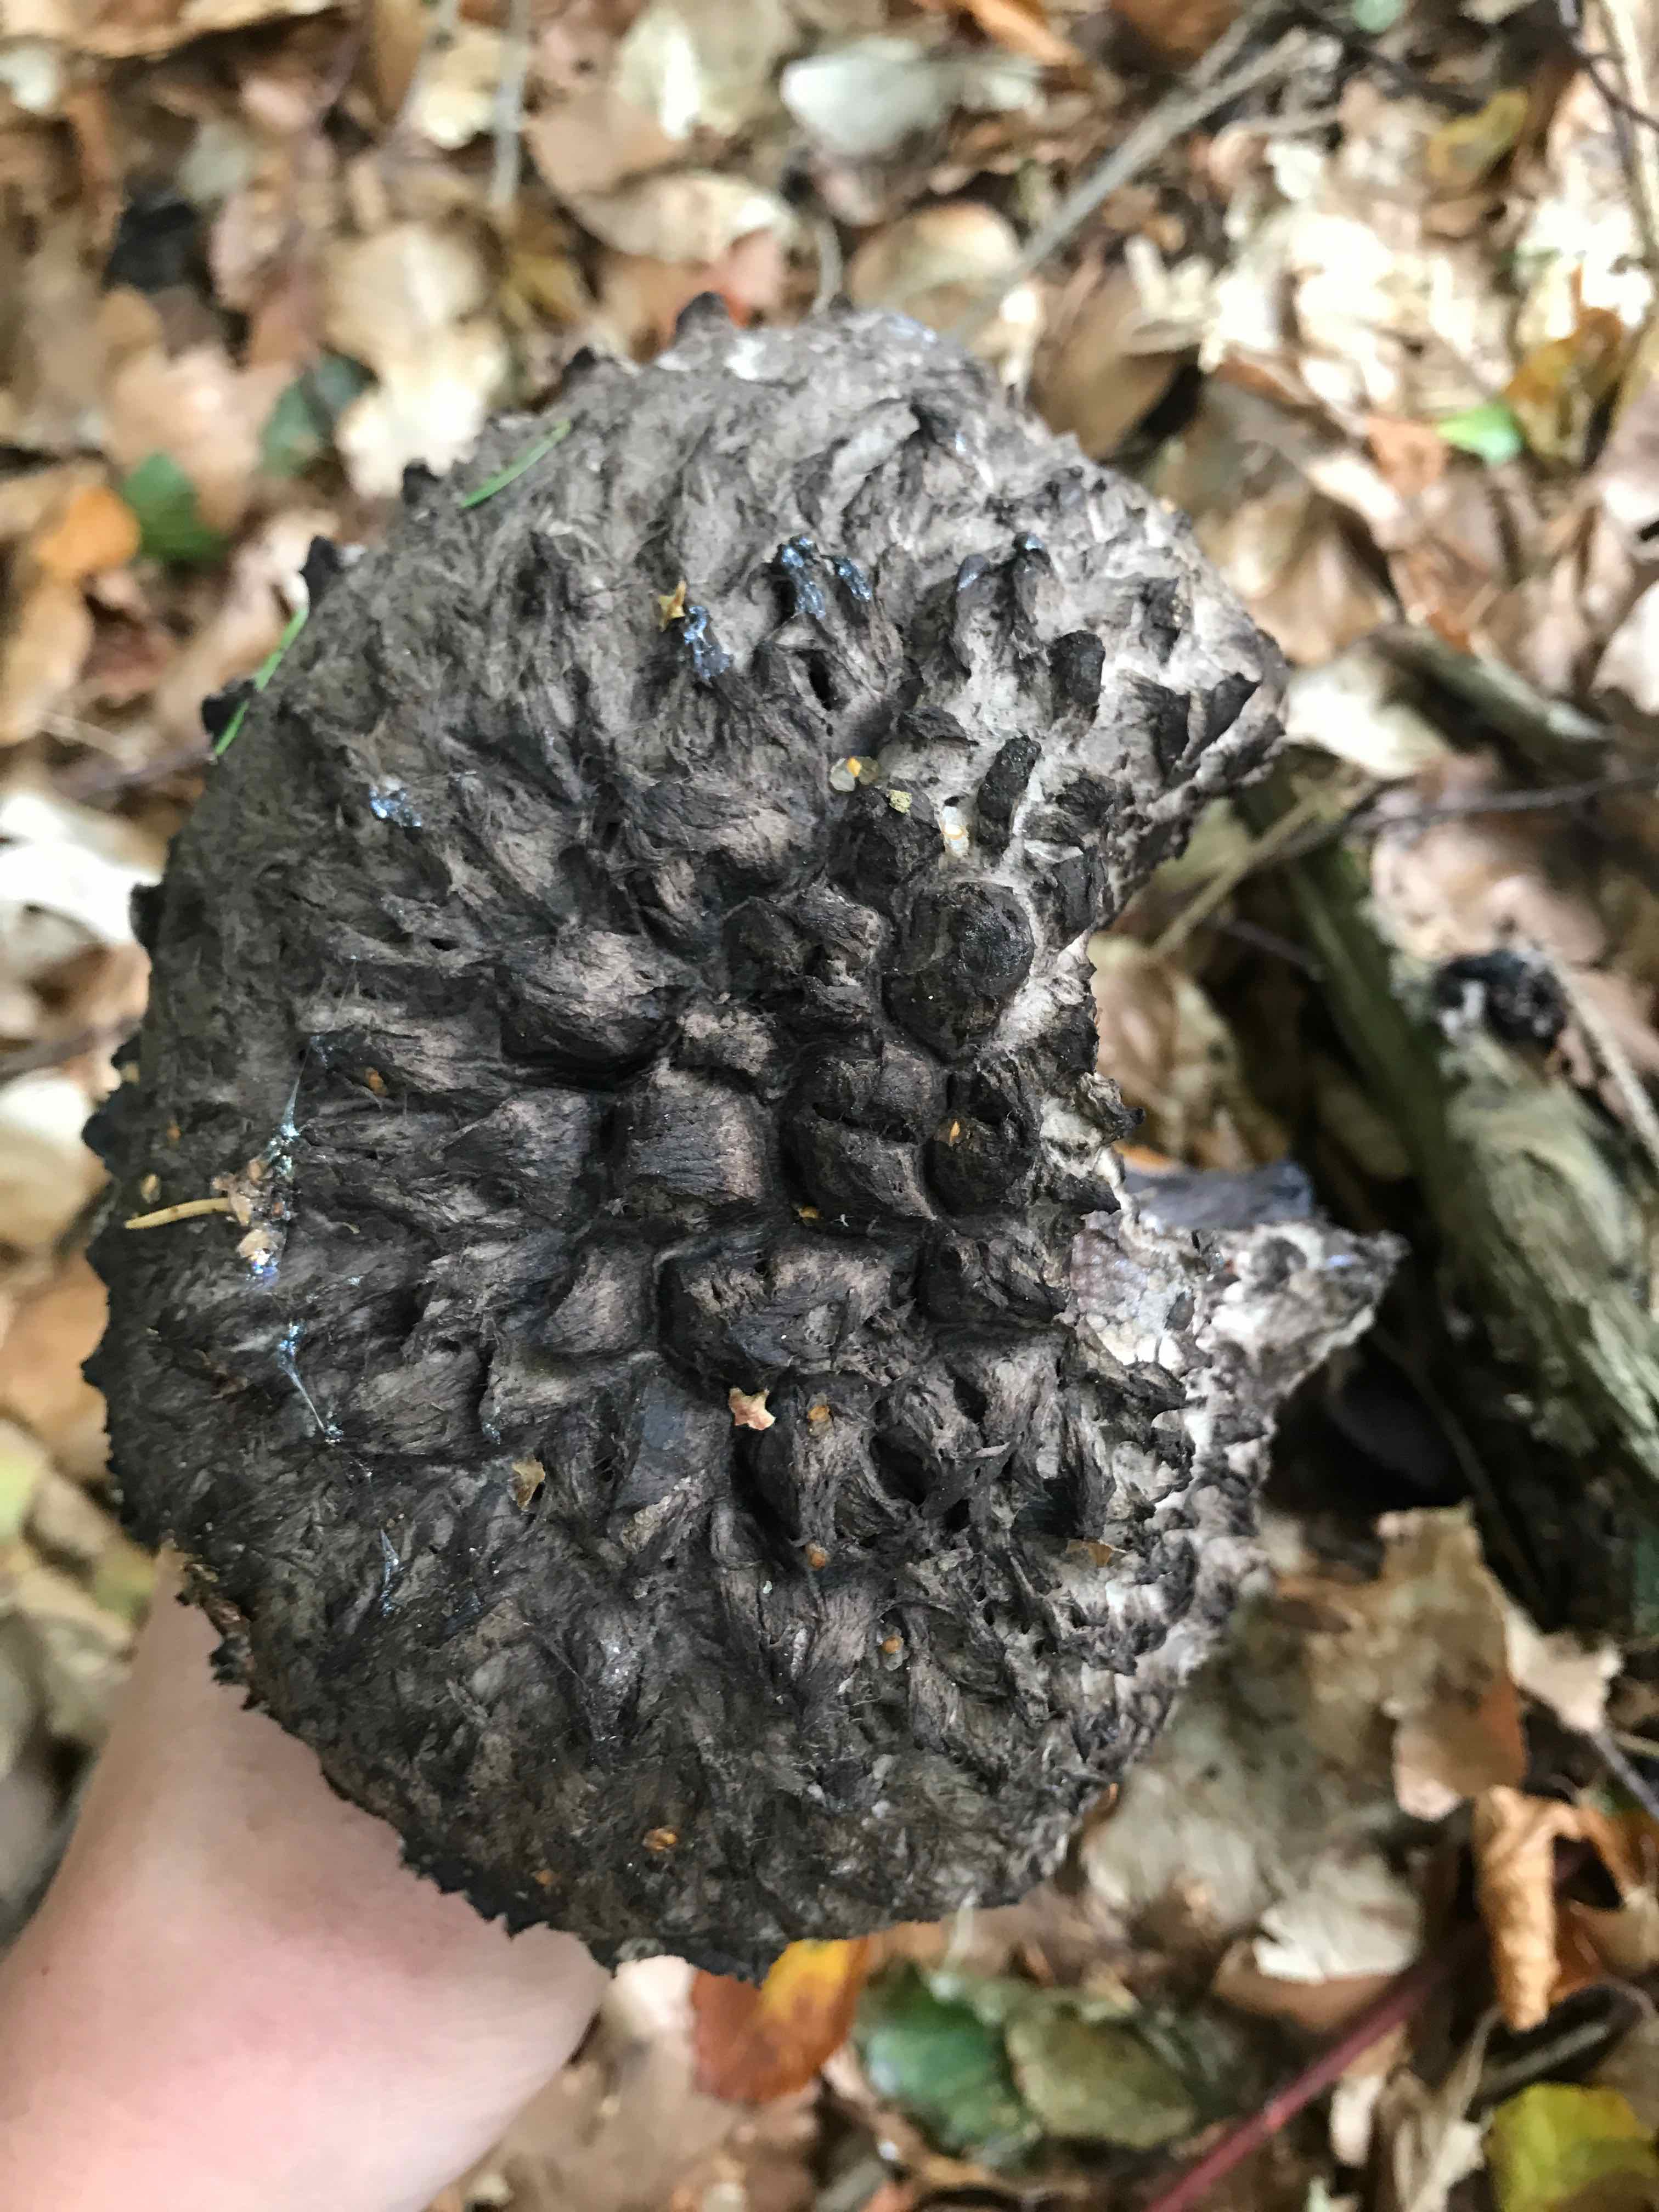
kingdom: Fungi
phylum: Basidiomycota
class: Agaricomycetes
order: Boletales
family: Boletaceae
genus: Strobilomyces
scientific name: Strobilomyces strobilaceus
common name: koglerørhat
